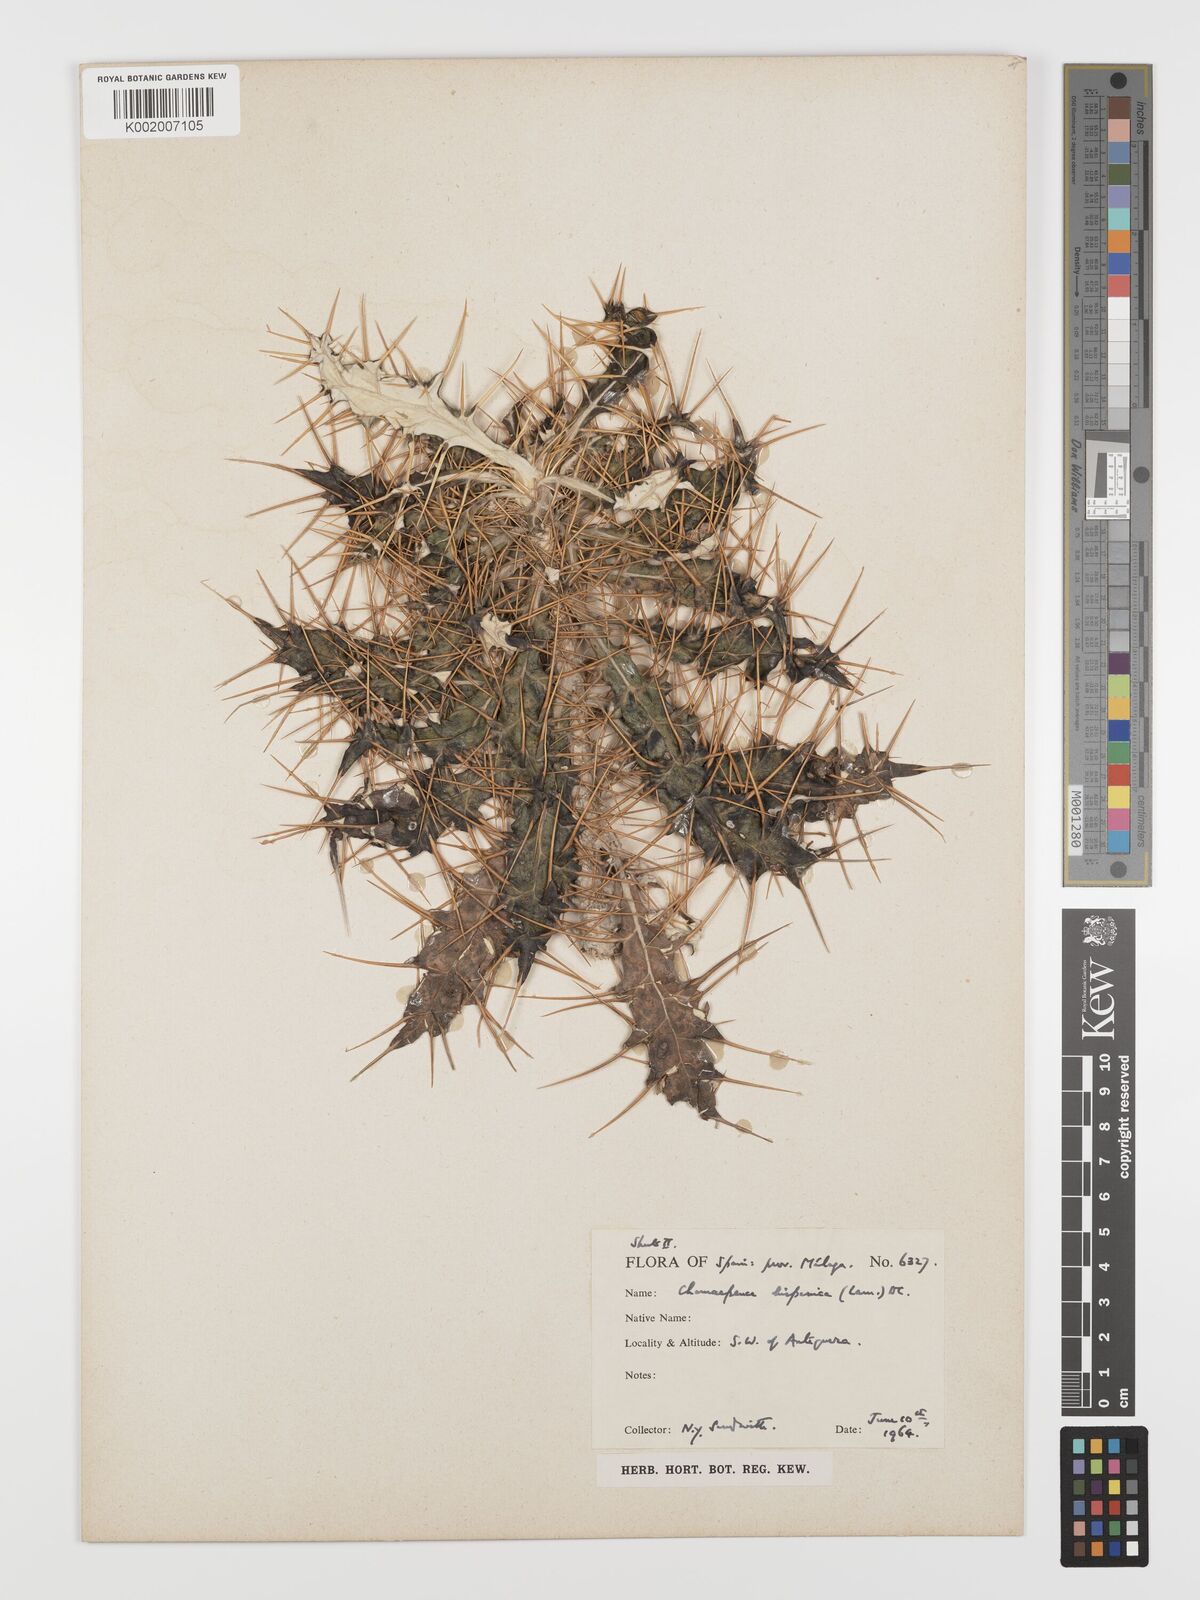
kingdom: Plantae
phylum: Tracheophyta
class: Magnoliopsida
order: Asterales
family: Asteraceae
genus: Ptilostemon
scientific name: Ptilostemon hispanicus
